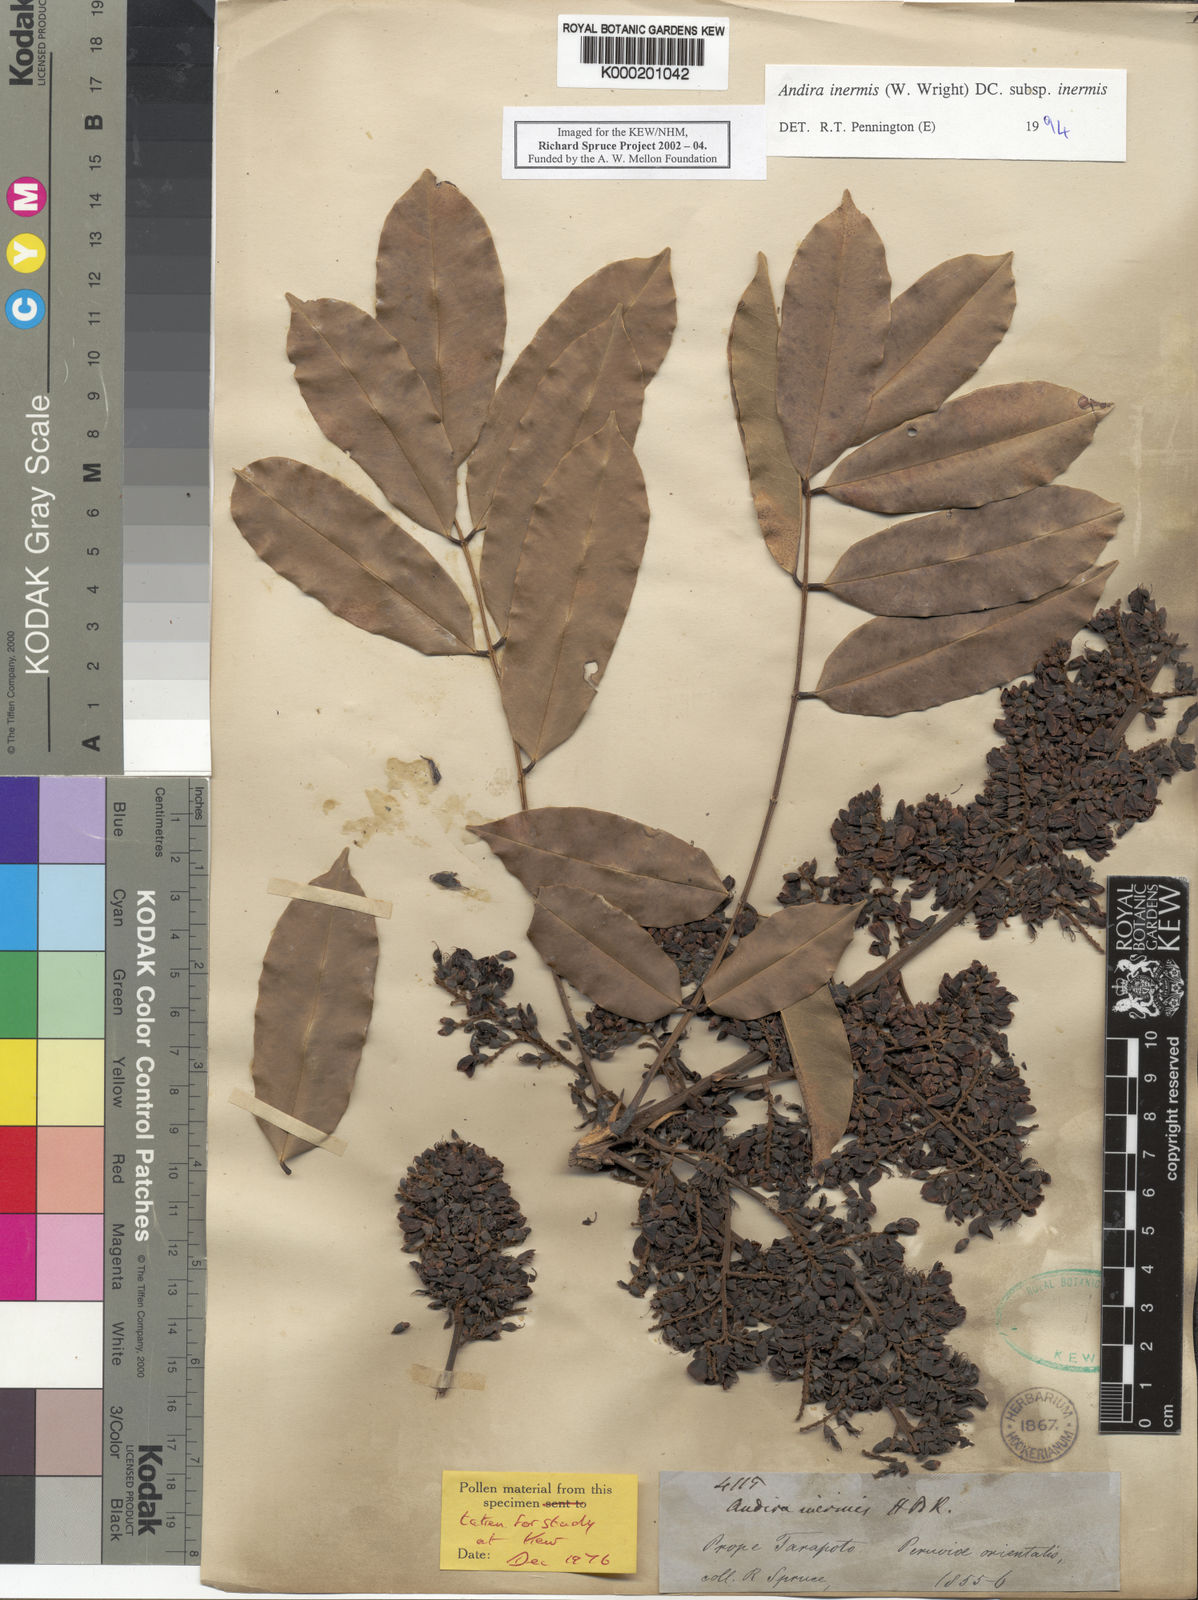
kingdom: Plantae
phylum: Tracheophyta
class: Magnoliopsida
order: Fabales
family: Fabaceae
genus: Andira
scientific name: Andira inermis
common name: Angelin
